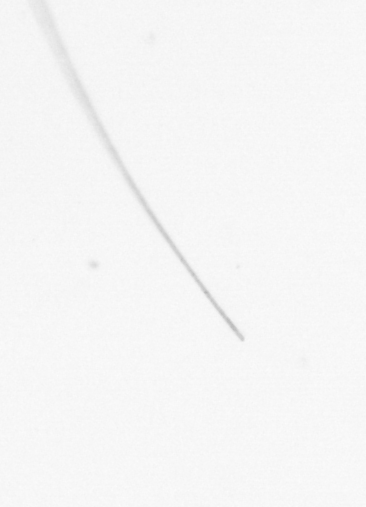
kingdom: Chromista
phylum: Ochrophyta
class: Bacillariophyceae
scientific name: Bacillariophyceae
